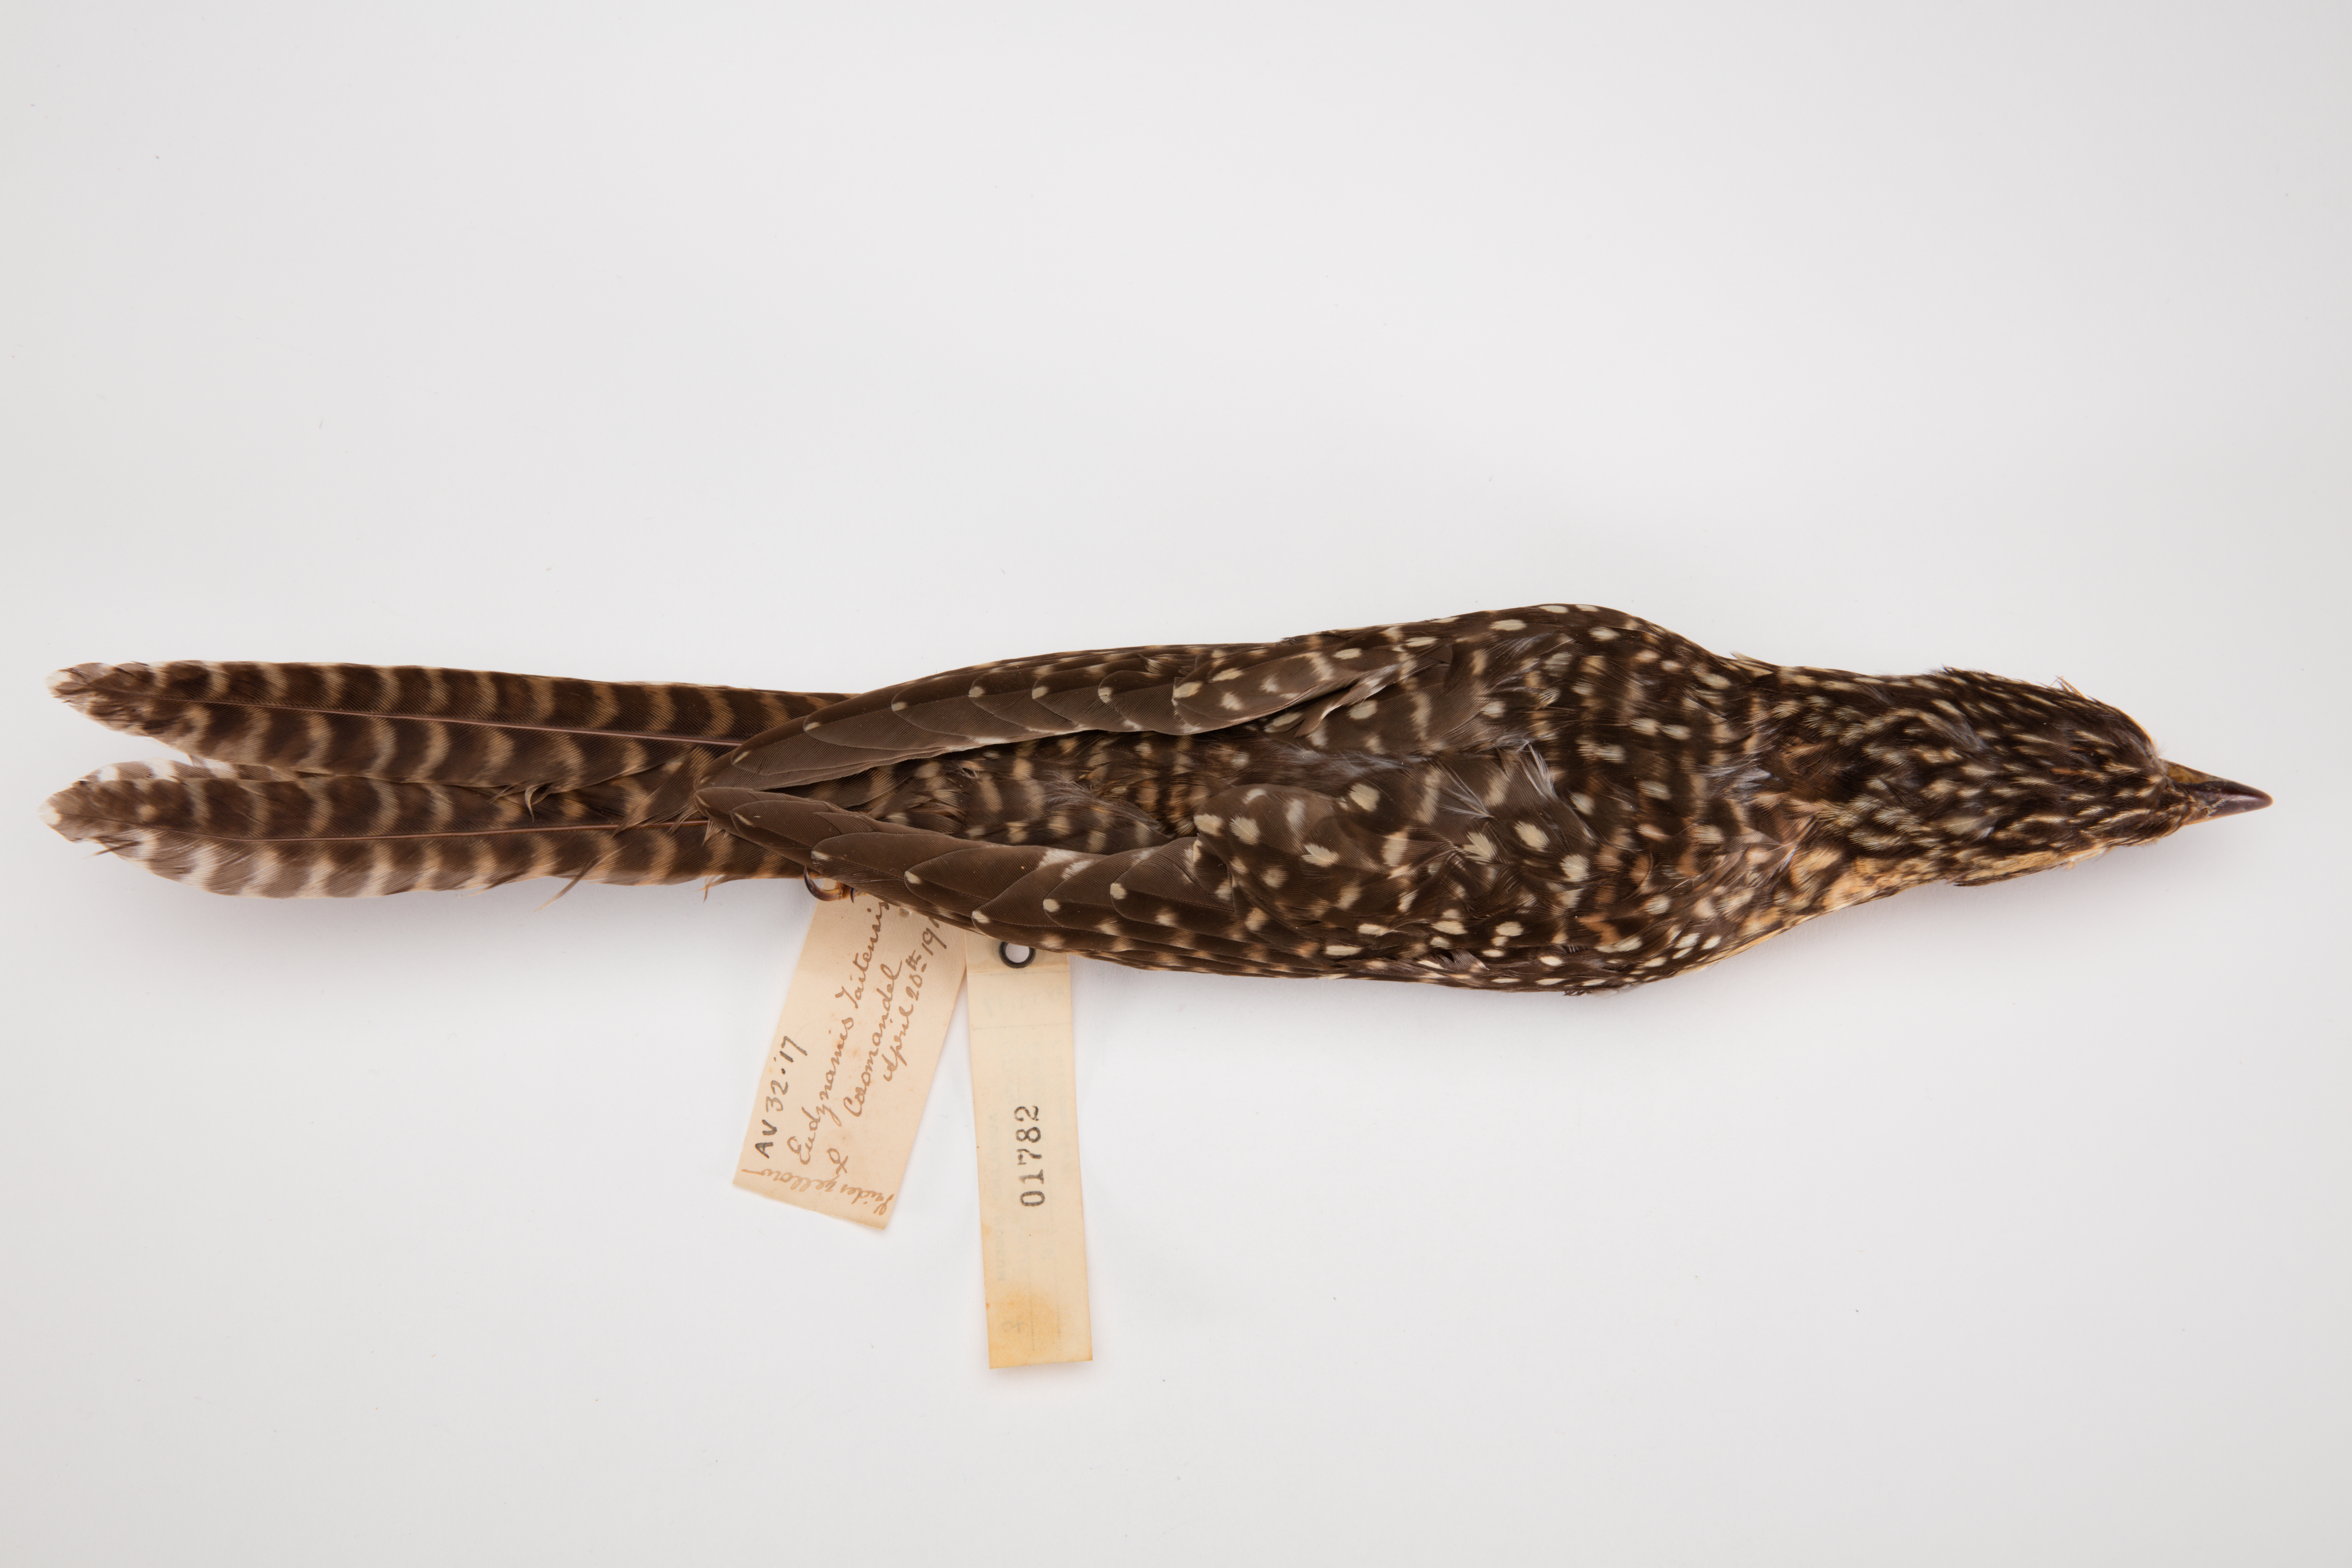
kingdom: Animalia
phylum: Chordata
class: Aves
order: Cuculiformes
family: Cuculidae
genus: Urodynamis
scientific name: Urodynamis taitensis
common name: Long-tailed koel
